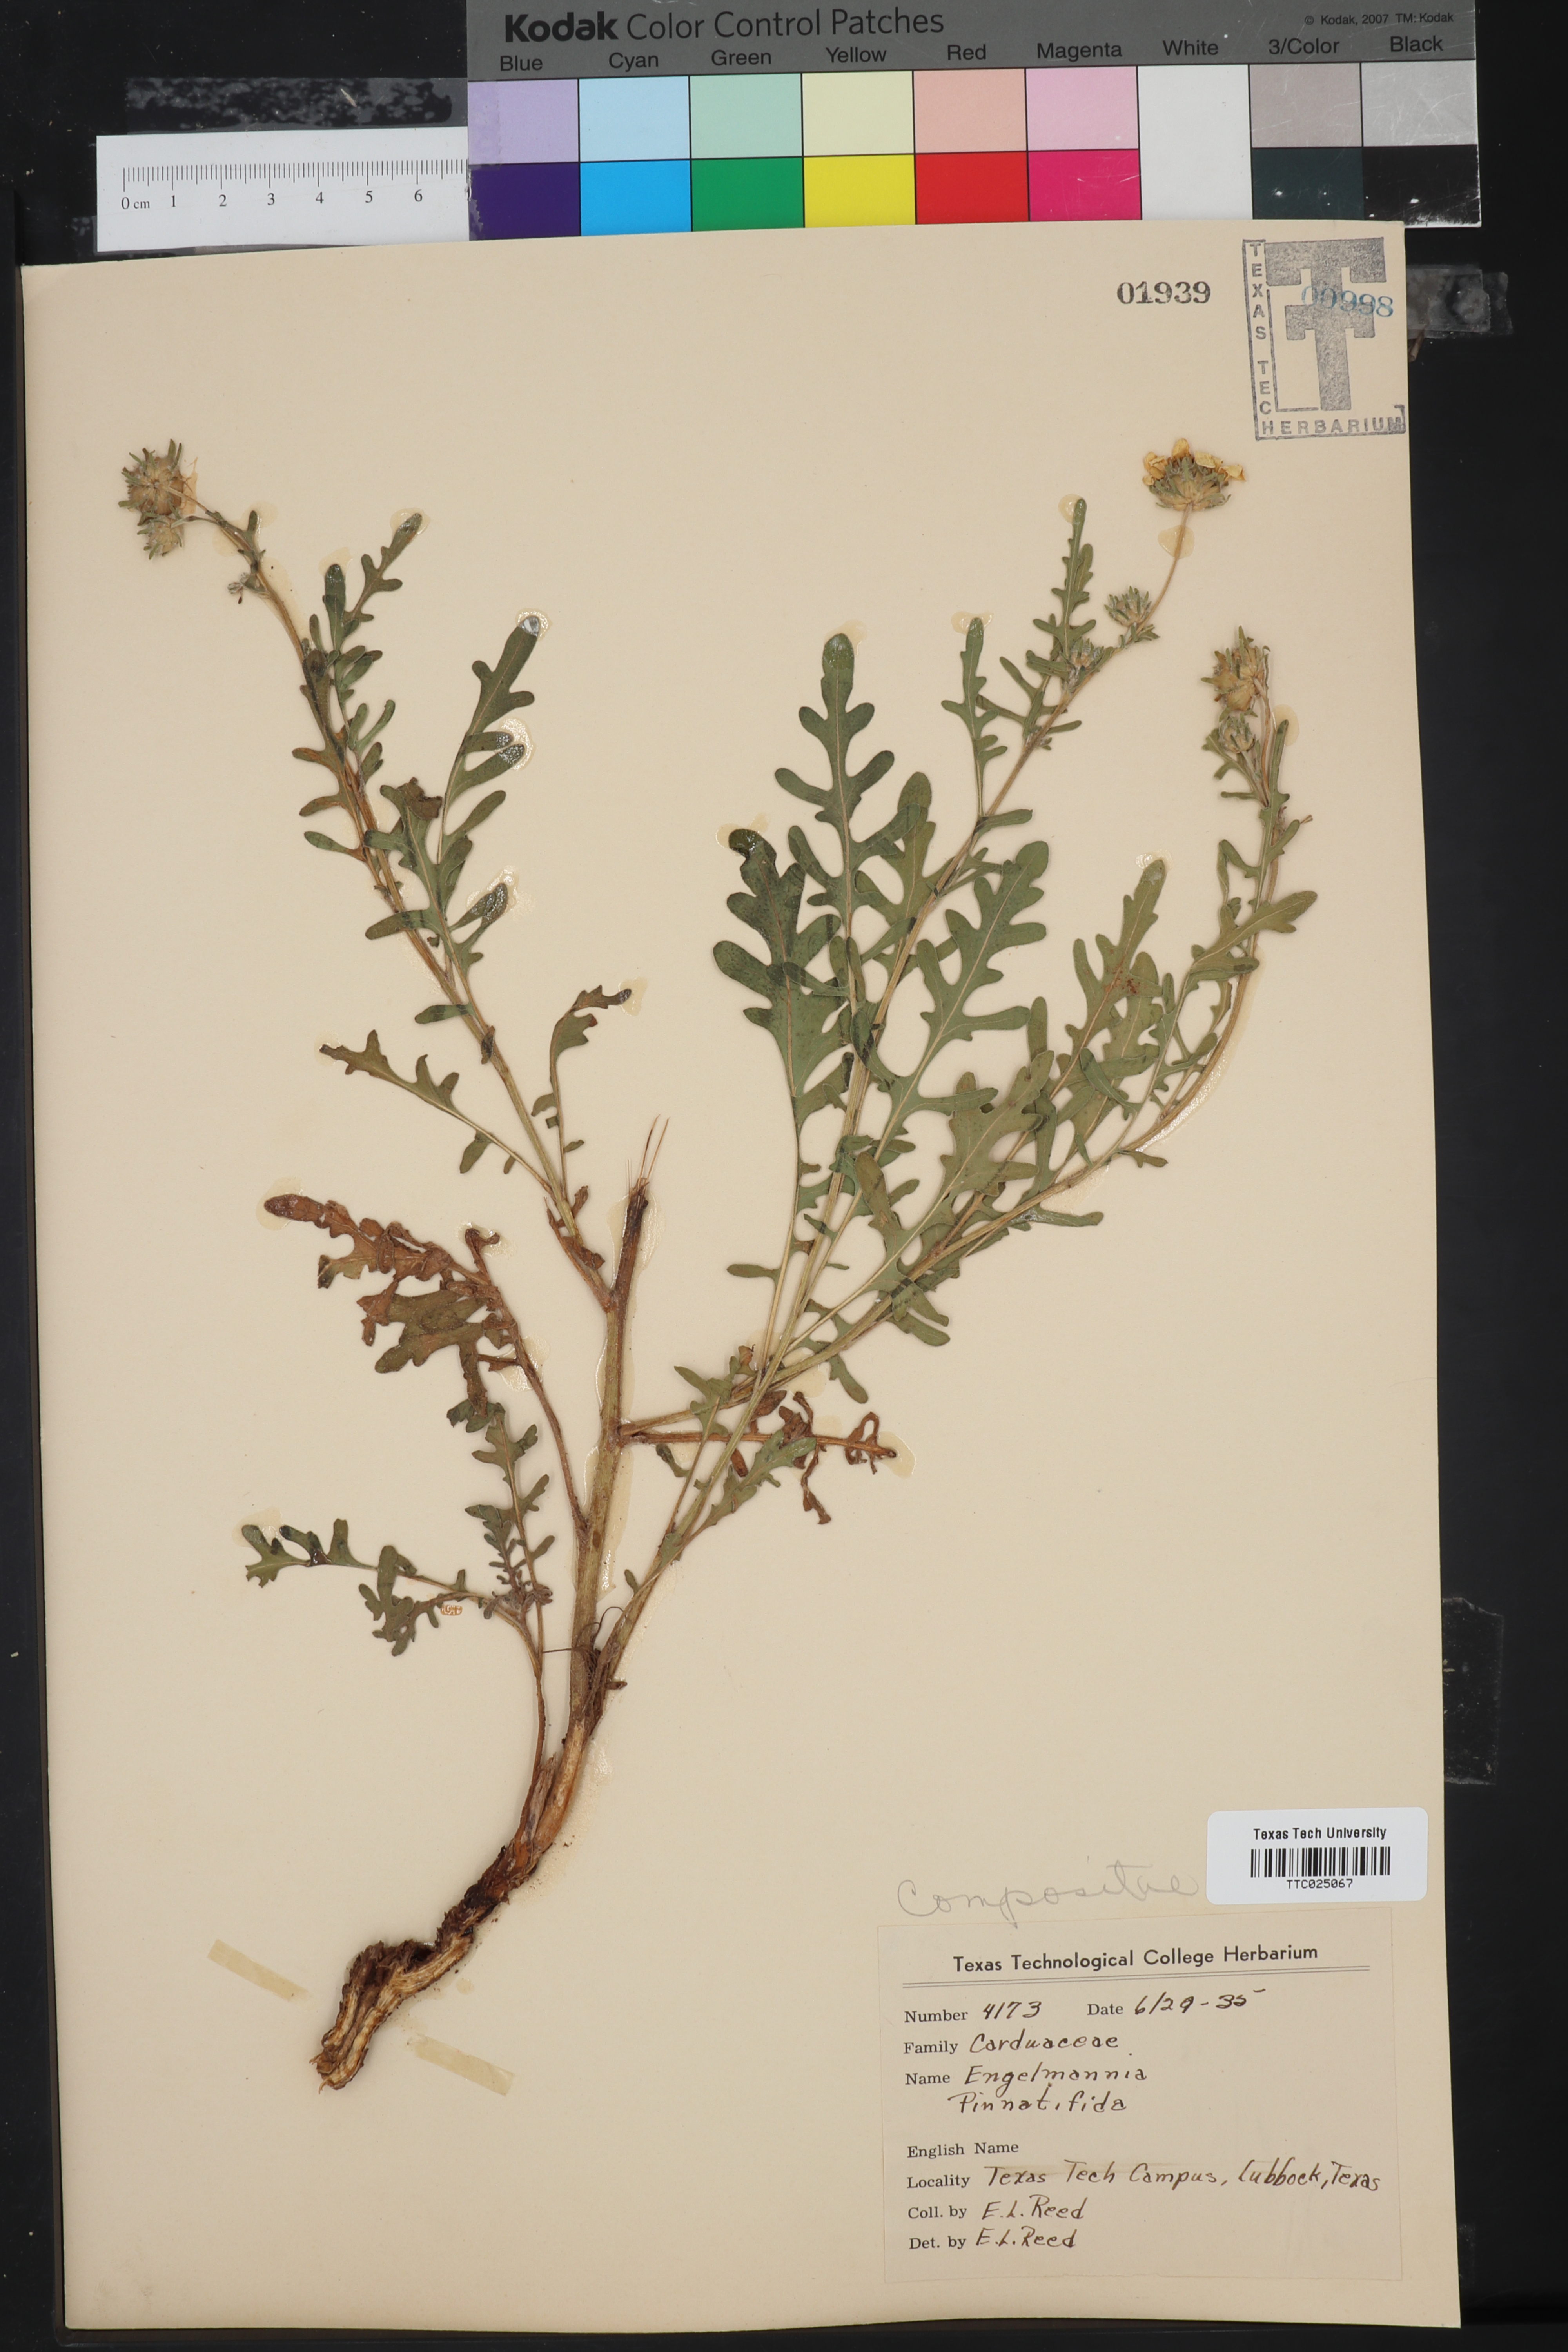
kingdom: Plantae
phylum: Tracheophyta
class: Magnoliopsida
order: Asterales
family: Asteraceae
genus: Engelmannia
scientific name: Engelmannia peristenia
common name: Engelmann's daisy
